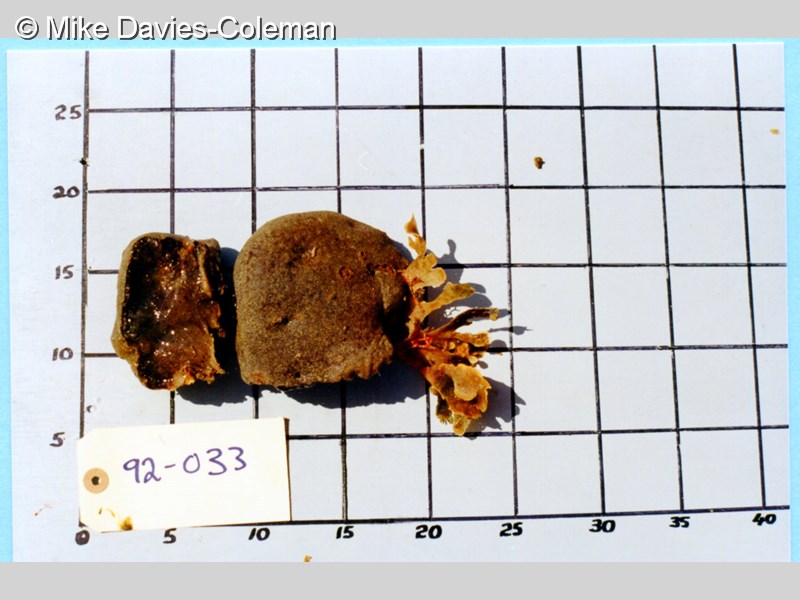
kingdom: Animalia
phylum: Chordata
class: Ascidiacea
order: Aplousobranchia
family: Polyclinidae
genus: Polyclinum
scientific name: Polyclinum isipingense
